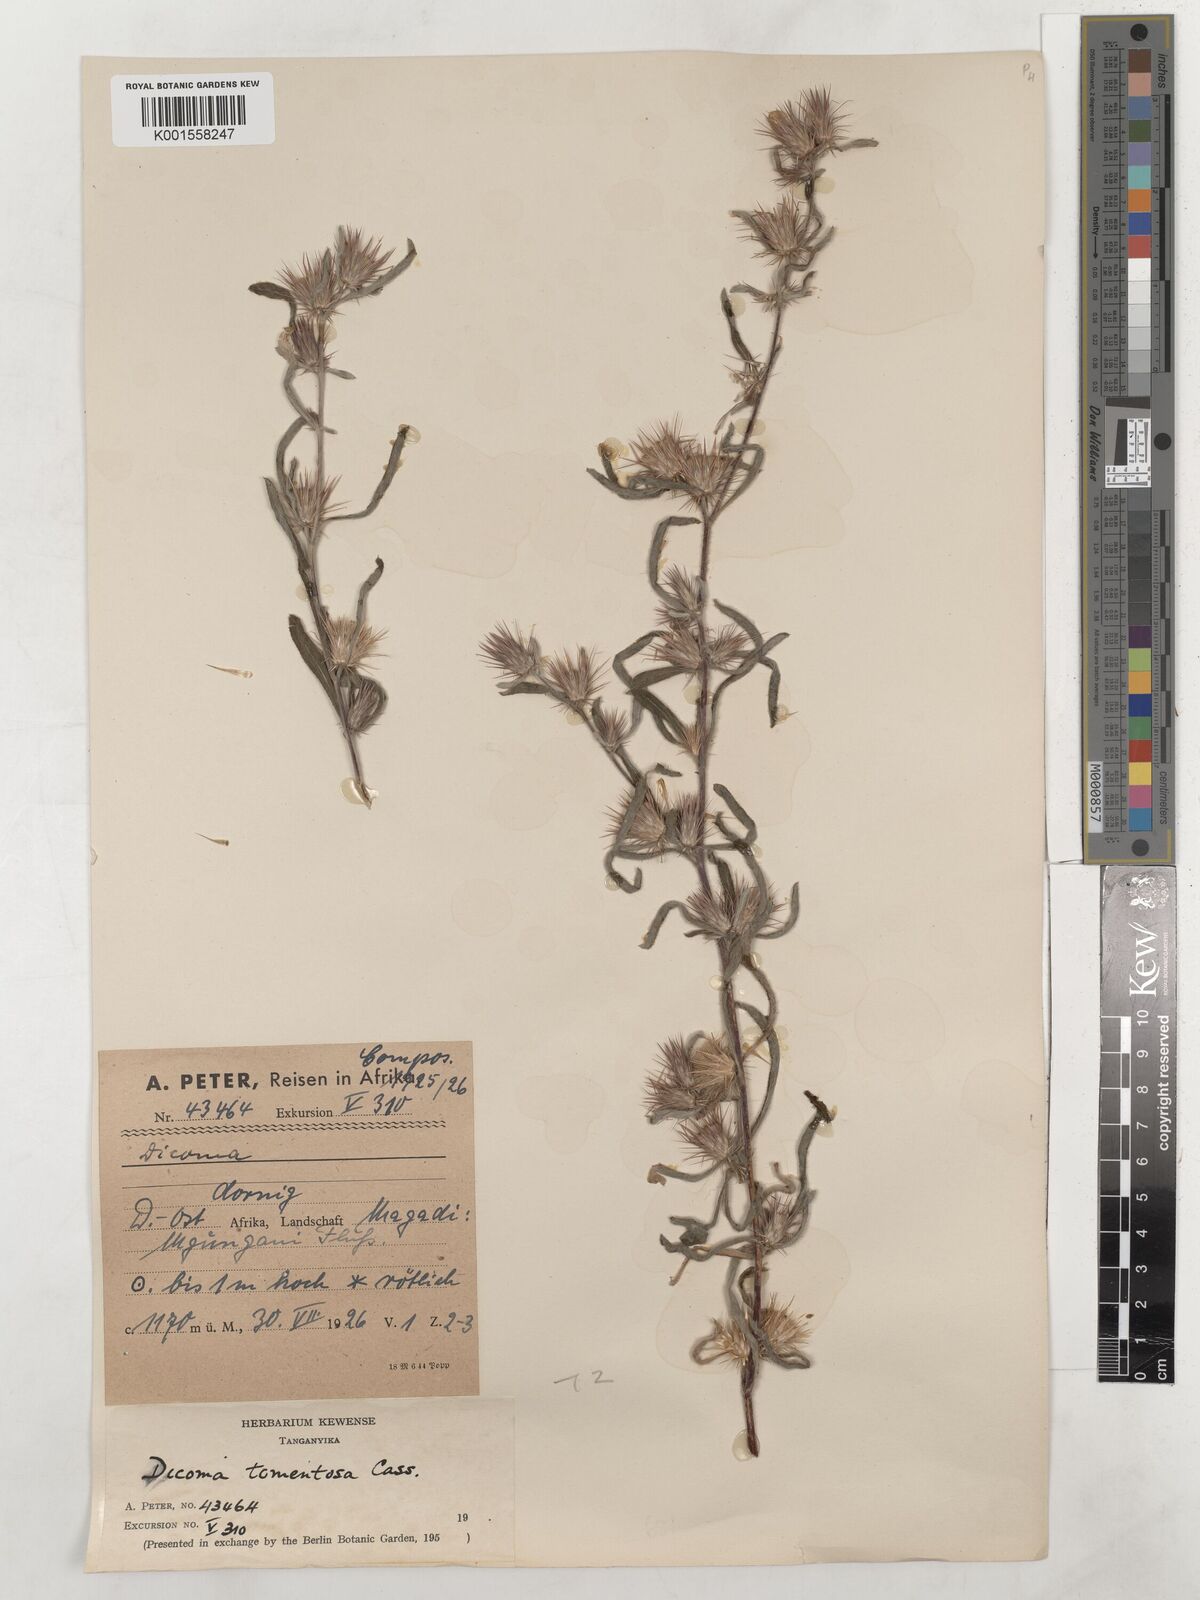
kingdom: Plantae
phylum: Tracheophyta
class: Magnoliopsida
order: Asterales
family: Asteraceae
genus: Dicoma
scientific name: Dicoma tomentosa
